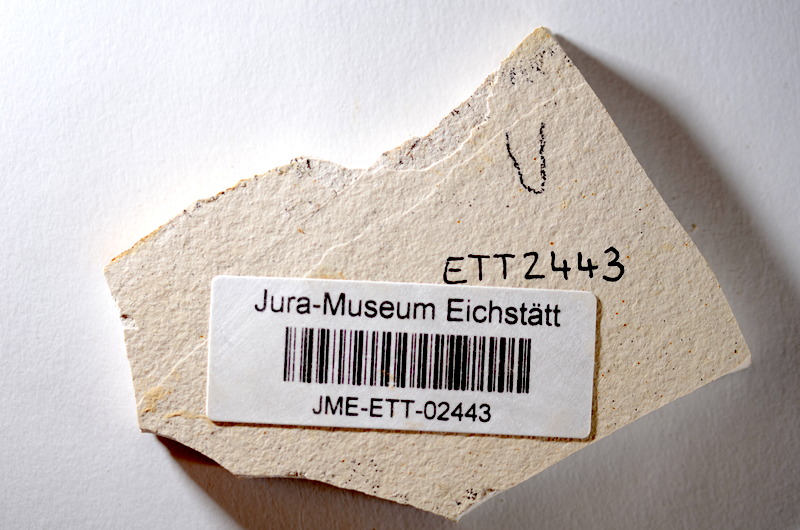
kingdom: Animalia
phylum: Chordata
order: Salmoniformes
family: Orthogonikleithridae
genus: Orthogonikleithrus
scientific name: Orthogonikleithrus hoelli
